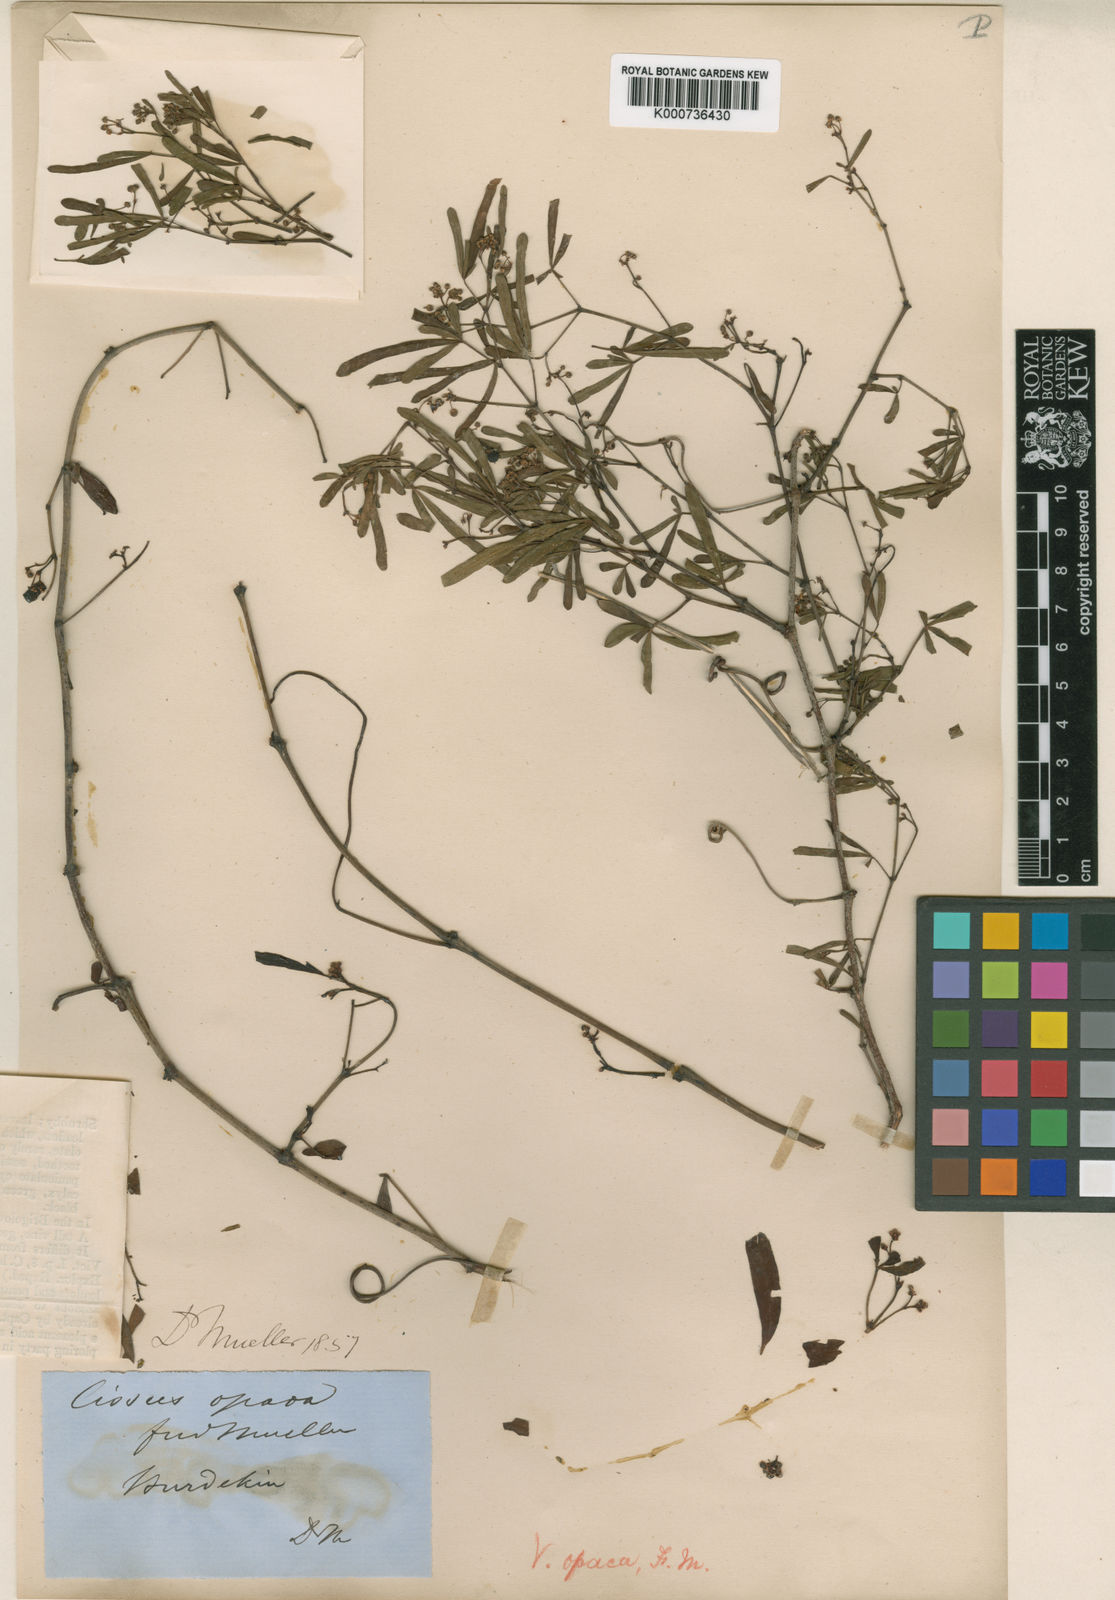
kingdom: Plantae
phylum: Tracheophyta
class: Magnoliopsida
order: Vitales
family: Vitaceae
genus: Clematicissus
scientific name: Clematicissus opaca
